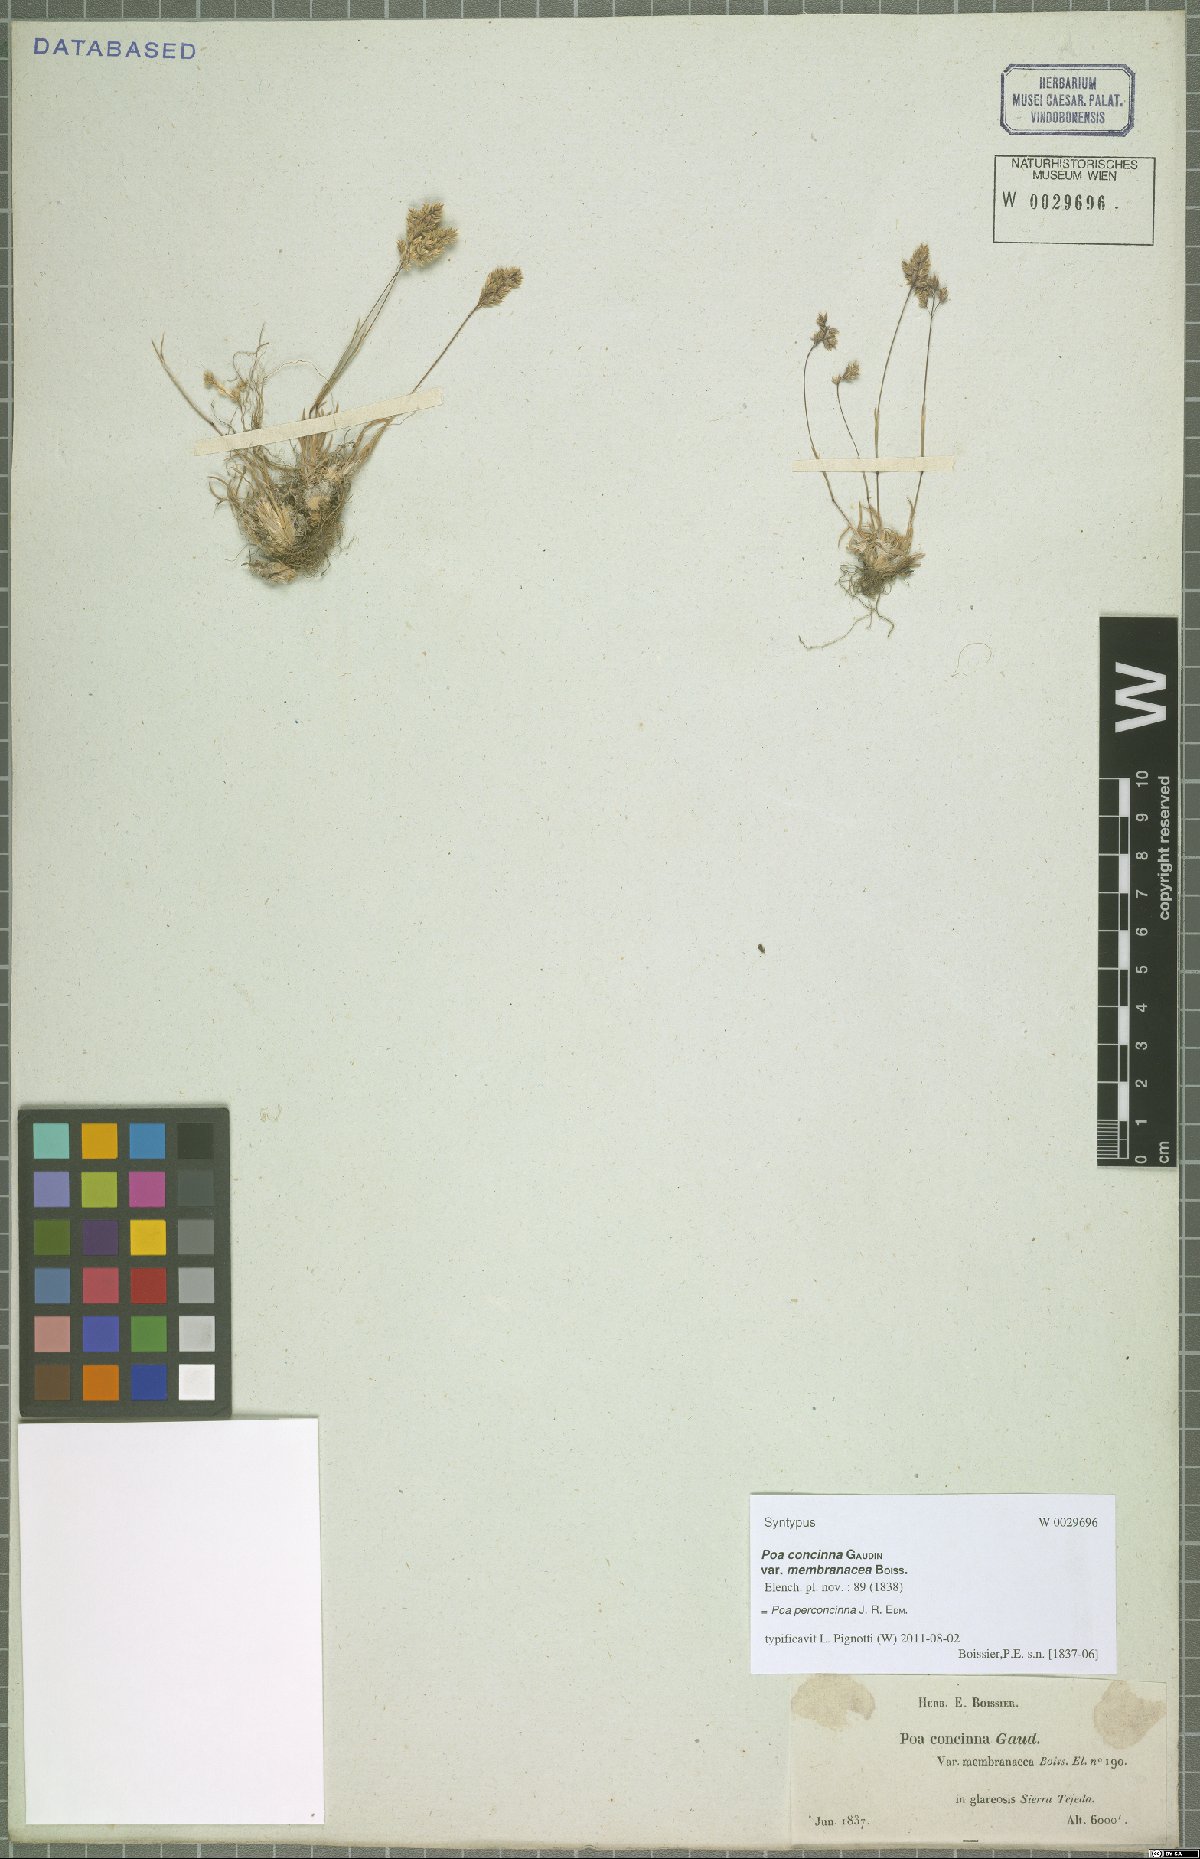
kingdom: Plantae
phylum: Tracheophyta
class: Liliopsida
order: Poales
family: Poaceae
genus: Poa
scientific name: Poa perconcinna
